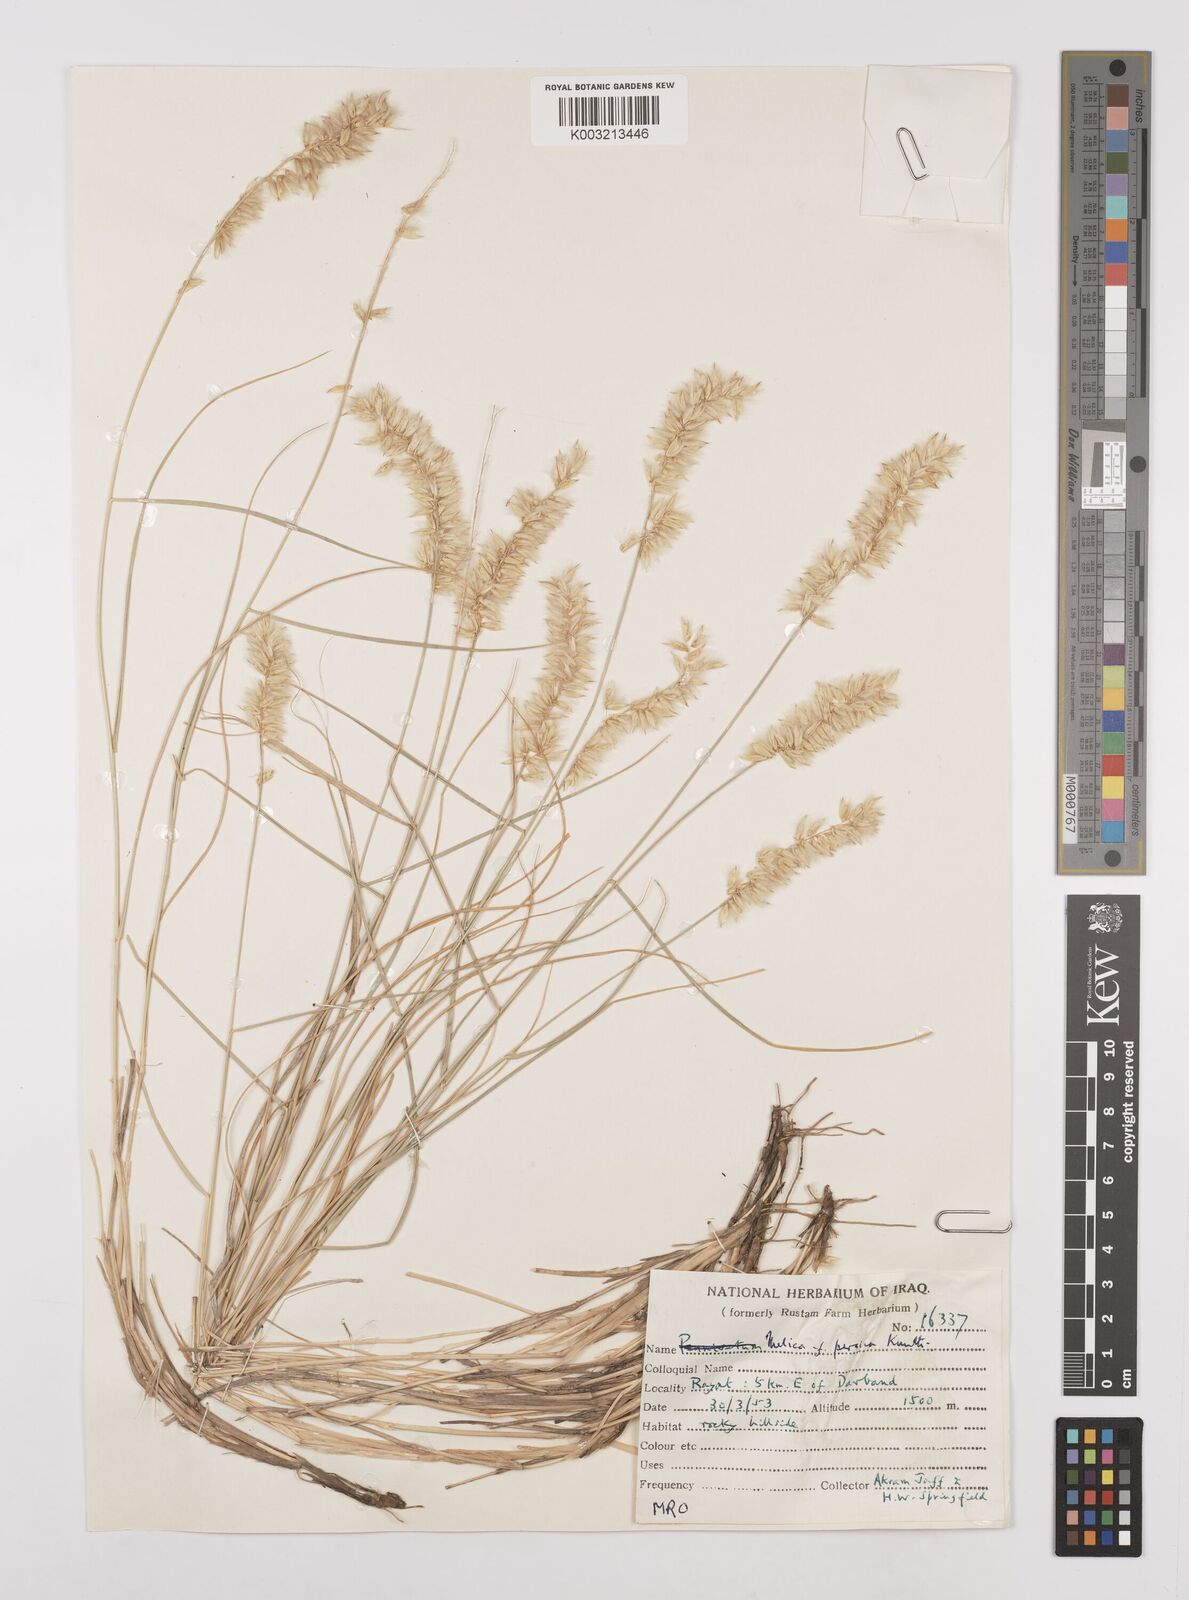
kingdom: Plantae
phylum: Tracheophyta
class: Liliopsida
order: Poales
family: Poaceae
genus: Melica
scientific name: Melica persica
